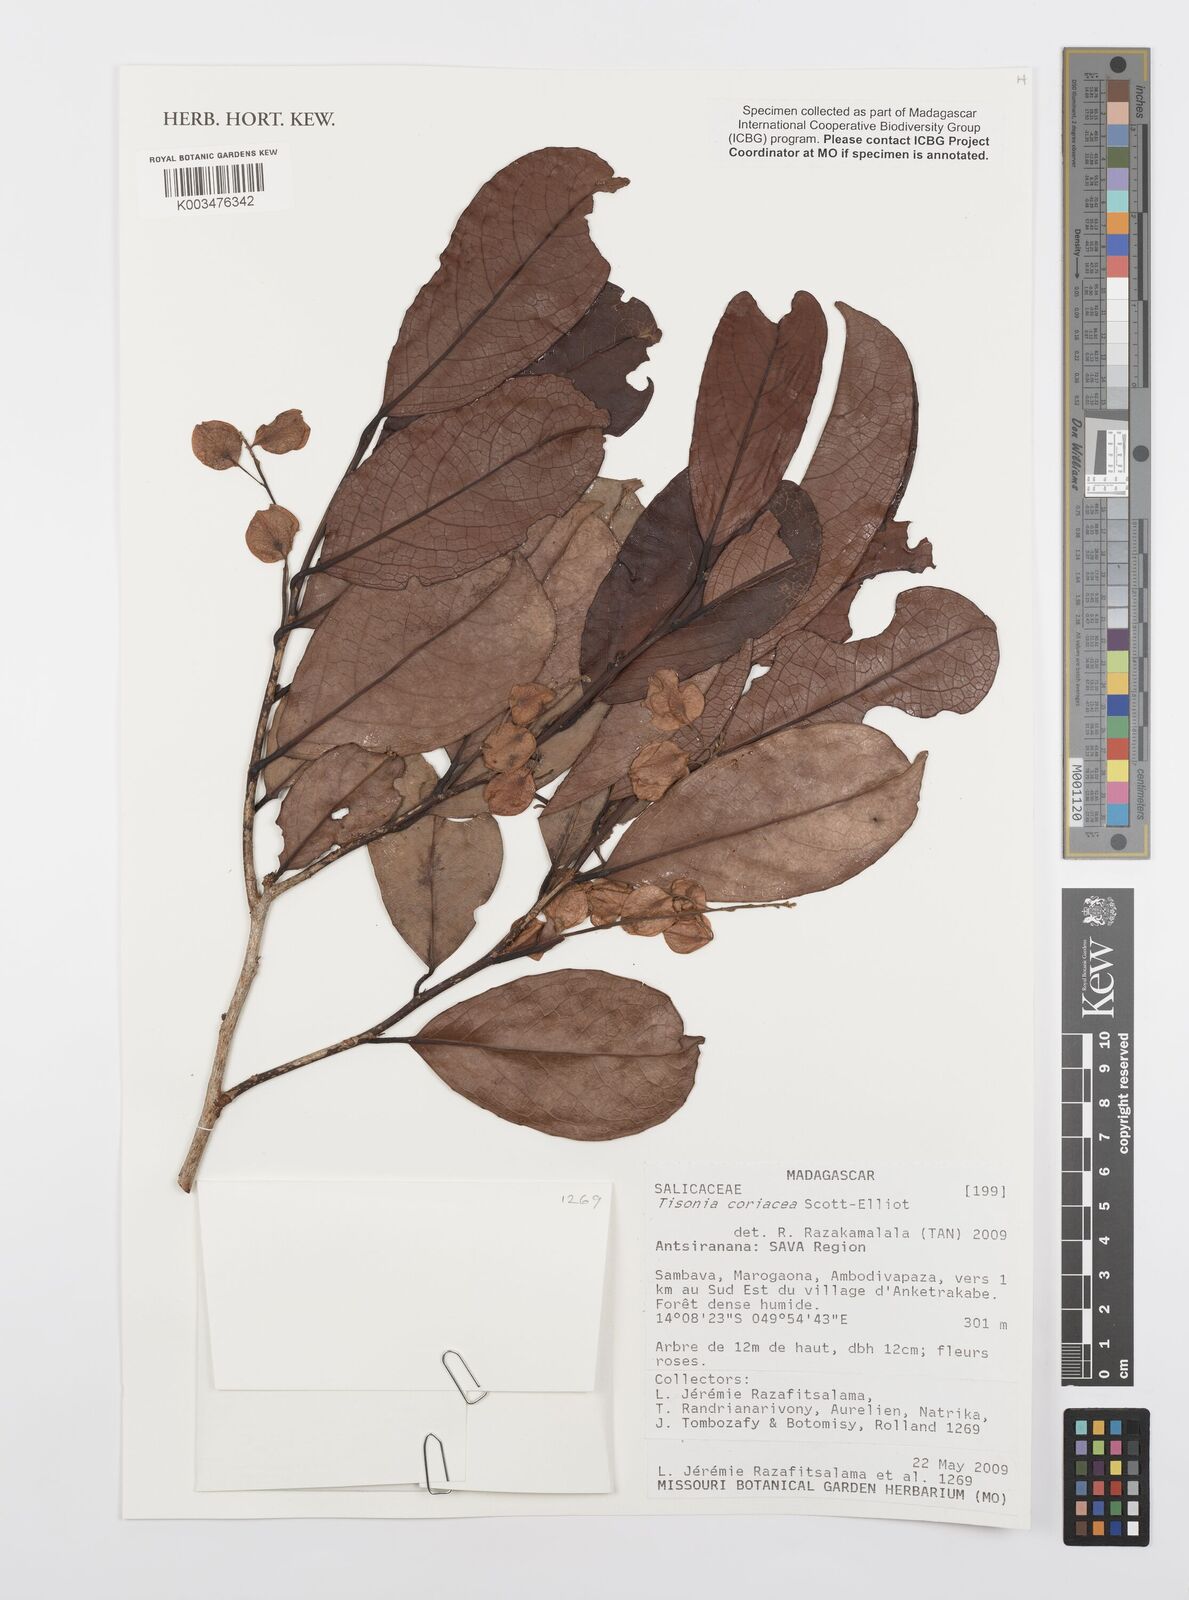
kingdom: Plantae
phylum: Tracheophyta
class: Magnoliopsida
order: Malpighiales
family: Salicaceae
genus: Tisonia
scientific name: Tisonia coriacea
